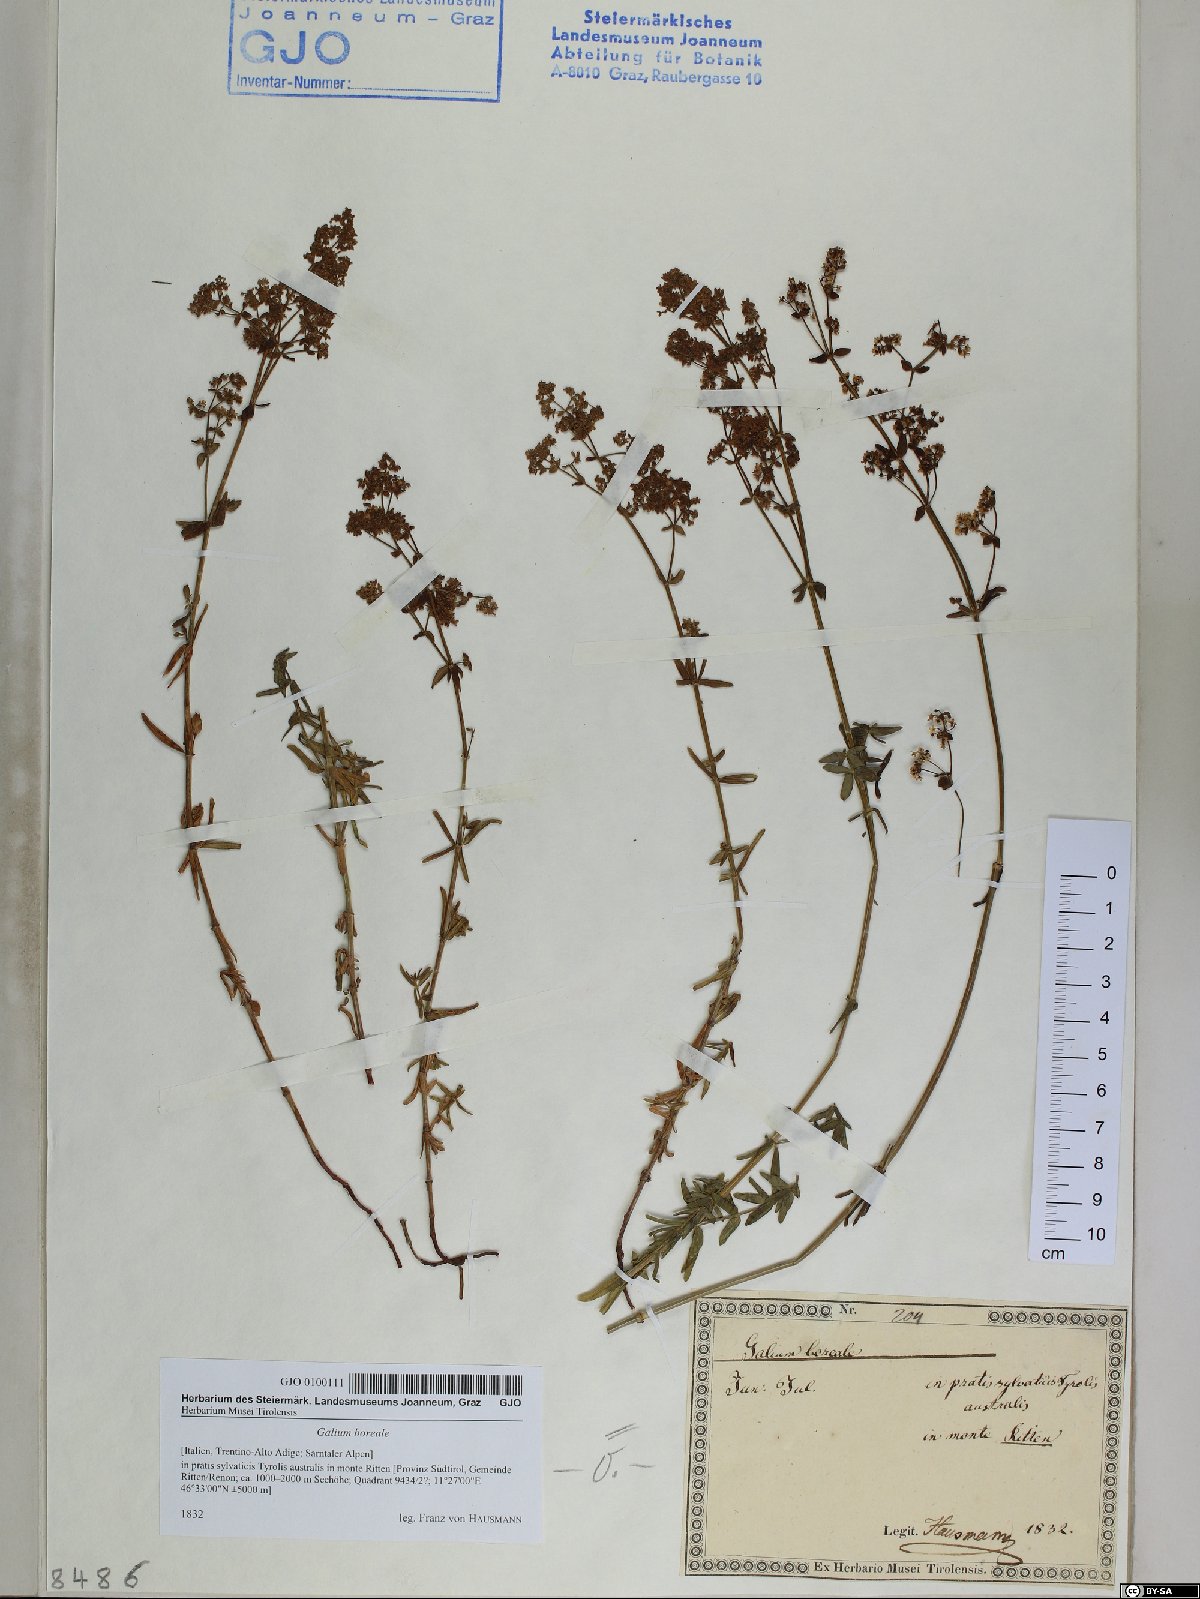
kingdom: Plantae
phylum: Tracheophyta
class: Magnoliopsida
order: Gentianales
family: Rubiaceae
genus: Galium
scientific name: Galium boreale
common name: Northern bedstraw
